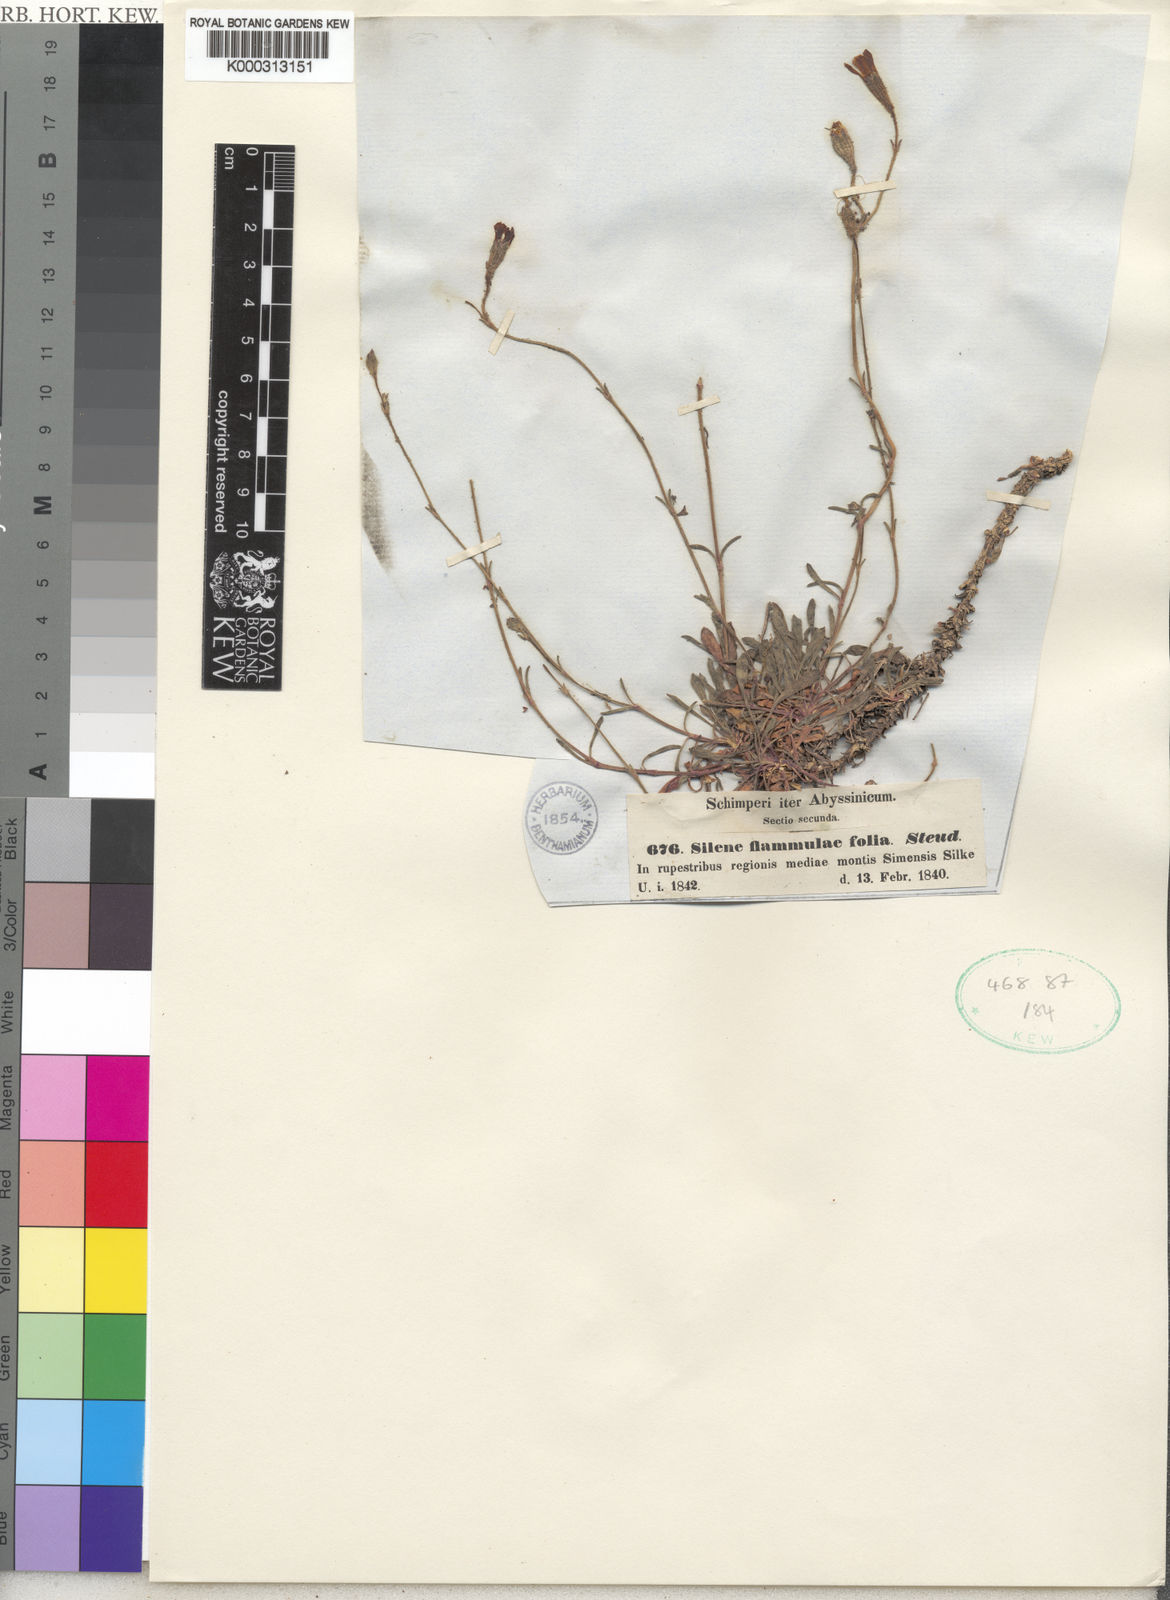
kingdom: Plantae
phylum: Tracheophyta
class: Magnoliopsida
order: Caryophyllales
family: Caryophyllaceae
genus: Silene
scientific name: Silene
